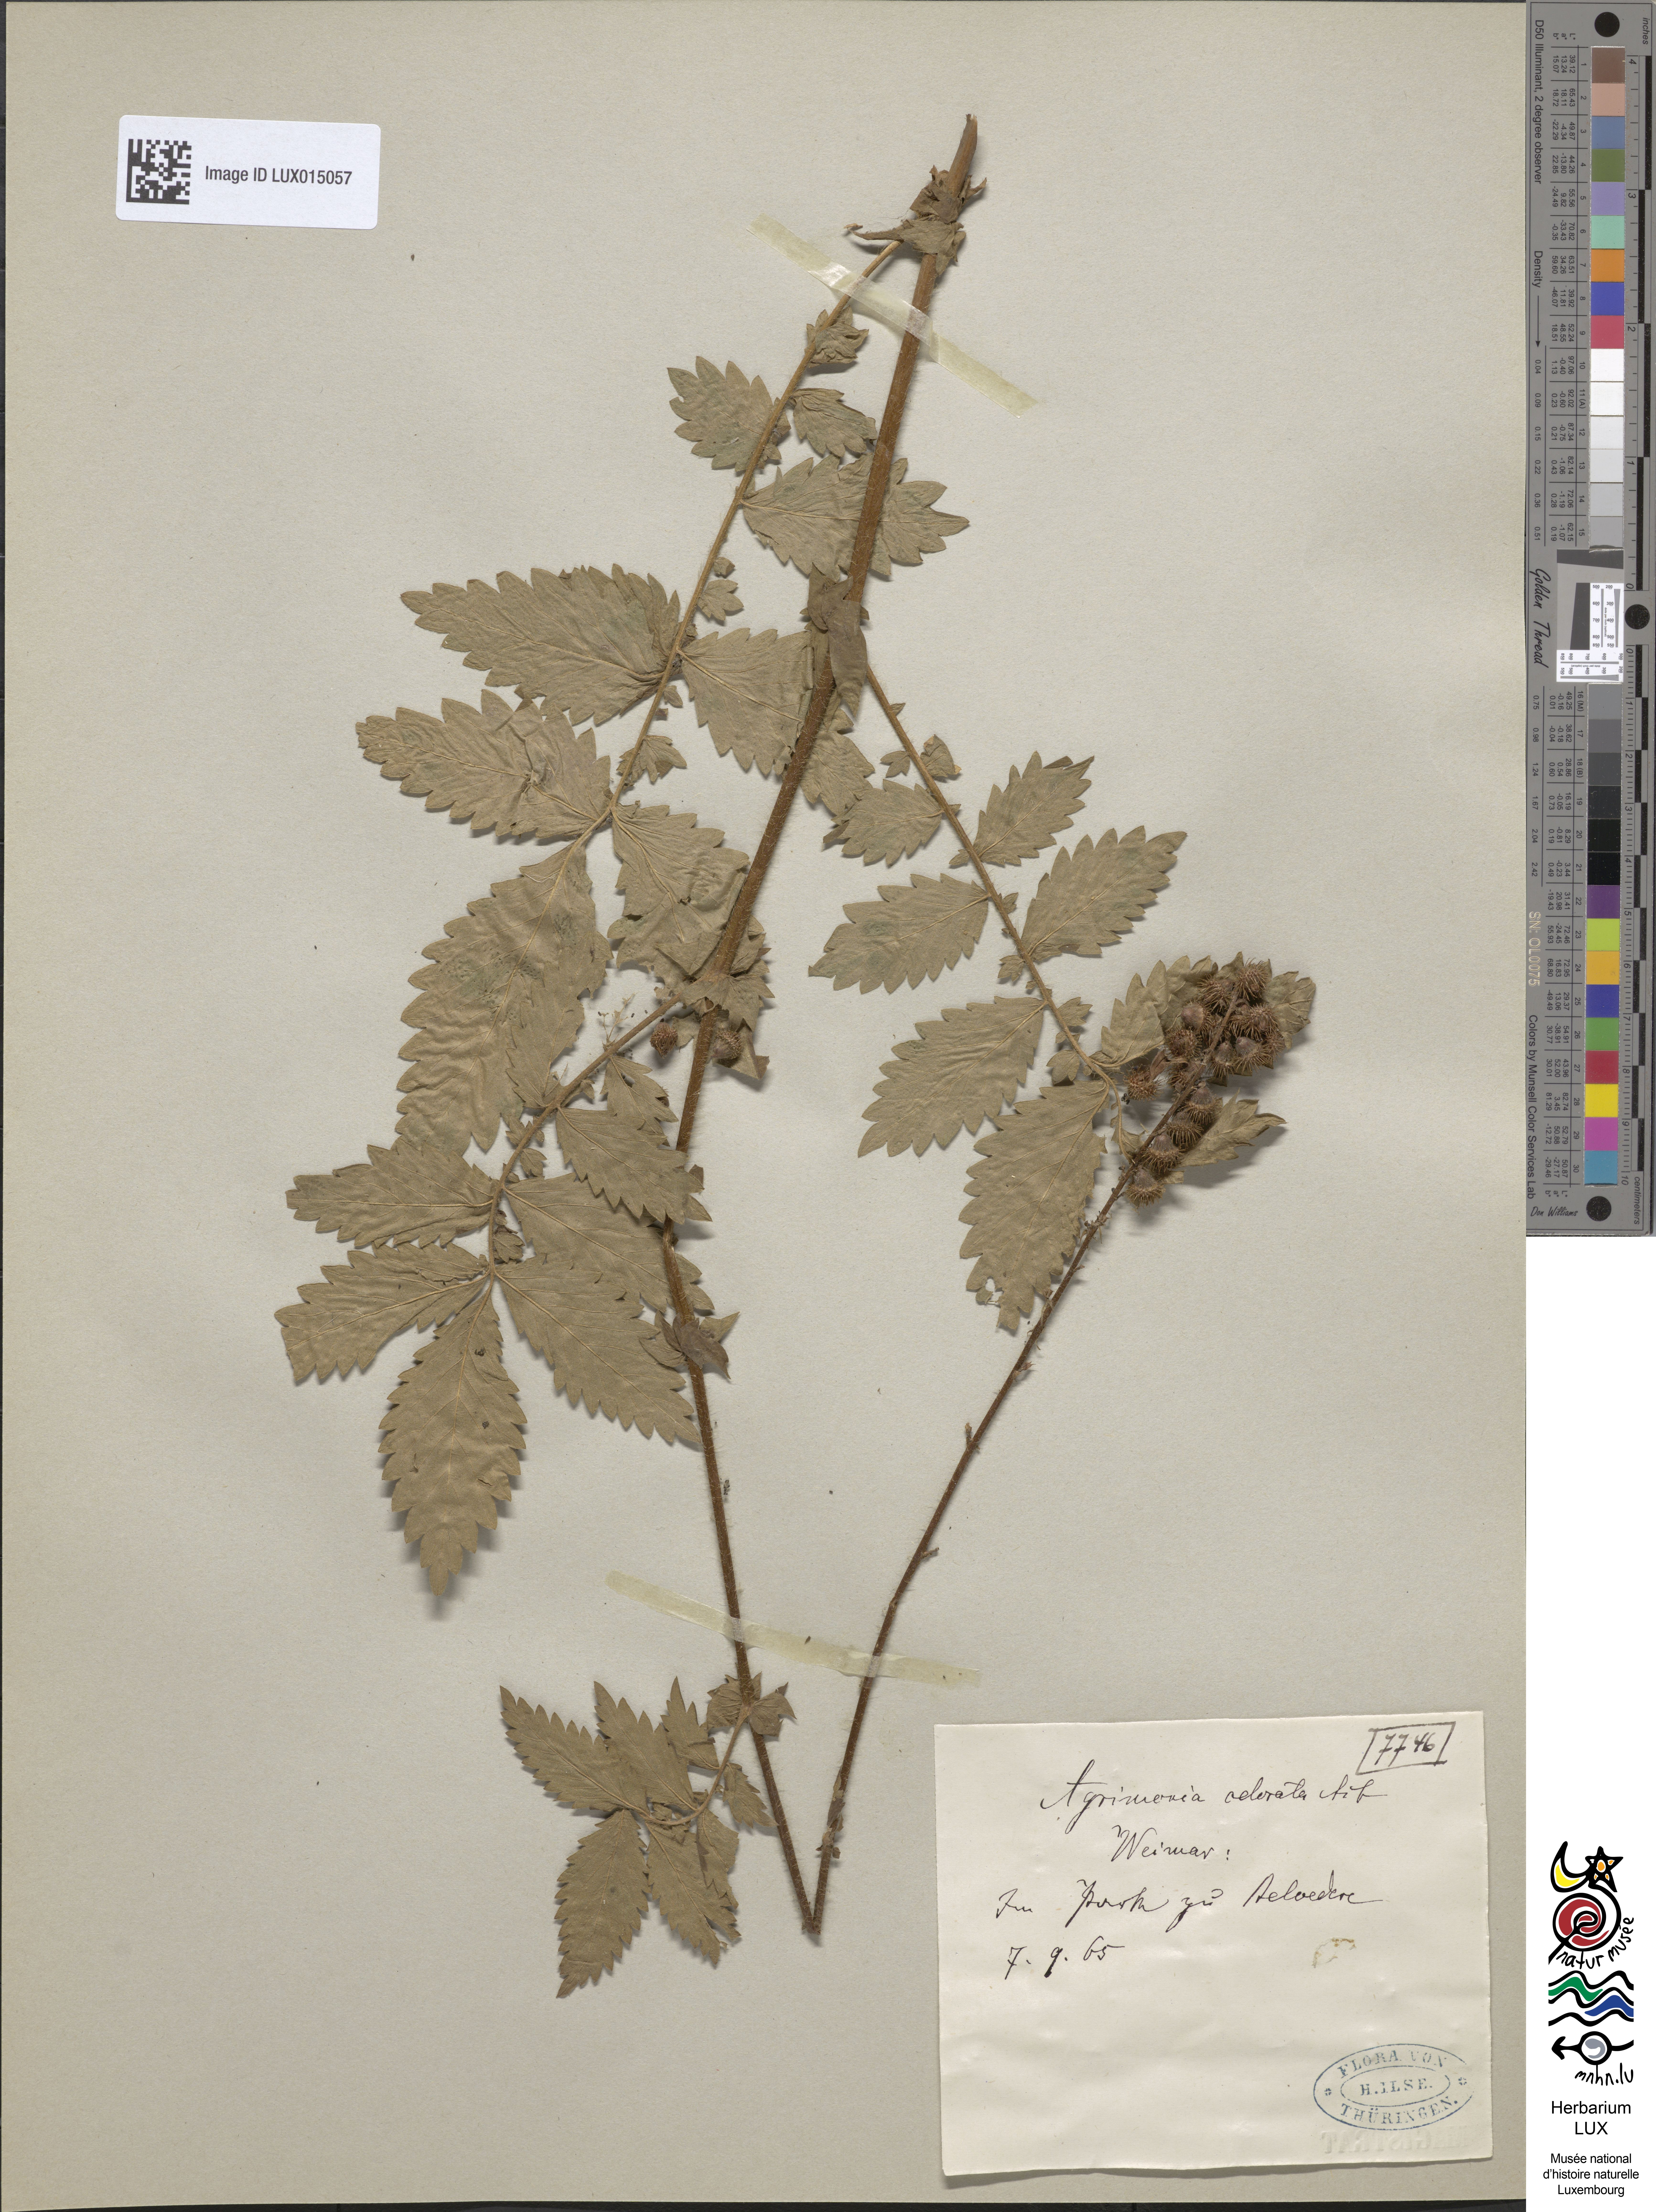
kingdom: Plantae
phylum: Tracheophyta
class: Magnoliopsida
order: Rosales
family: Rosaceae
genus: Agrimonia
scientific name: Agrimonia repens
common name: Creeping agrimony
